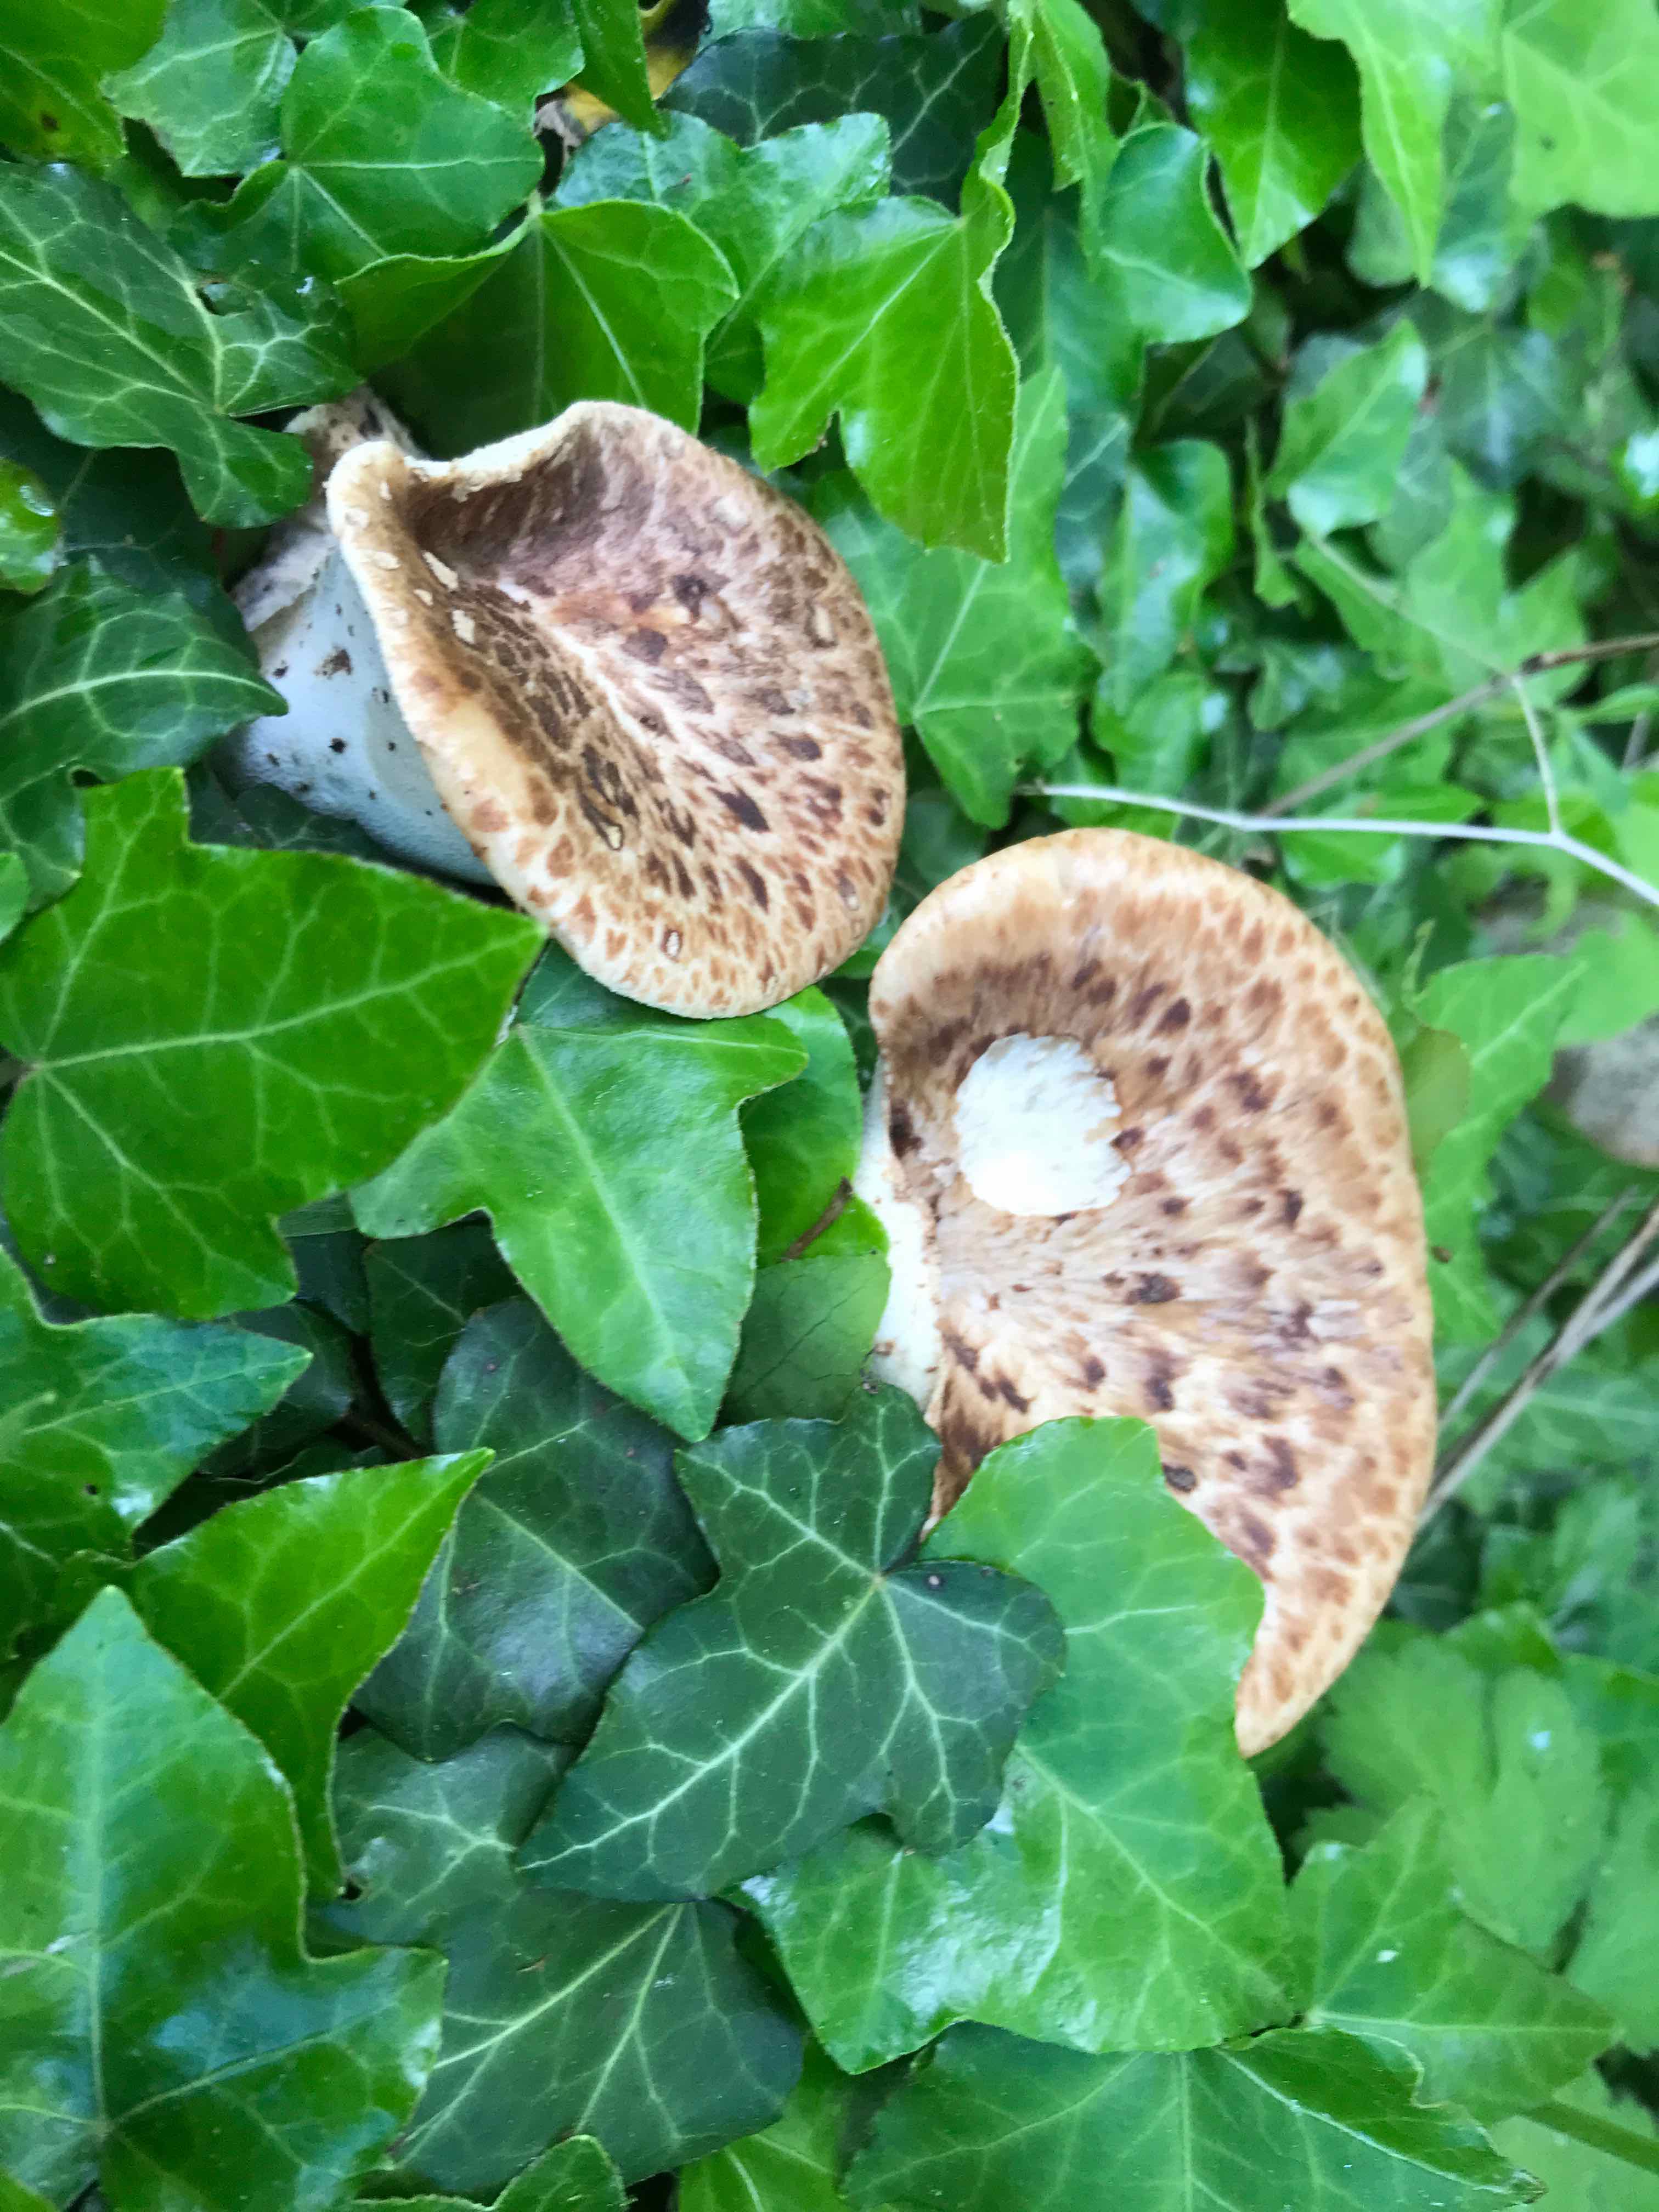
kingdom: Fungi
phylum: Basidiomycota
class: Agaricomycetes
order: Polyporales
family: Polyporaceae
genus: Cerioporus
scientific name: Cerioporus squamosus
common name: skællet stilkporesvamp
